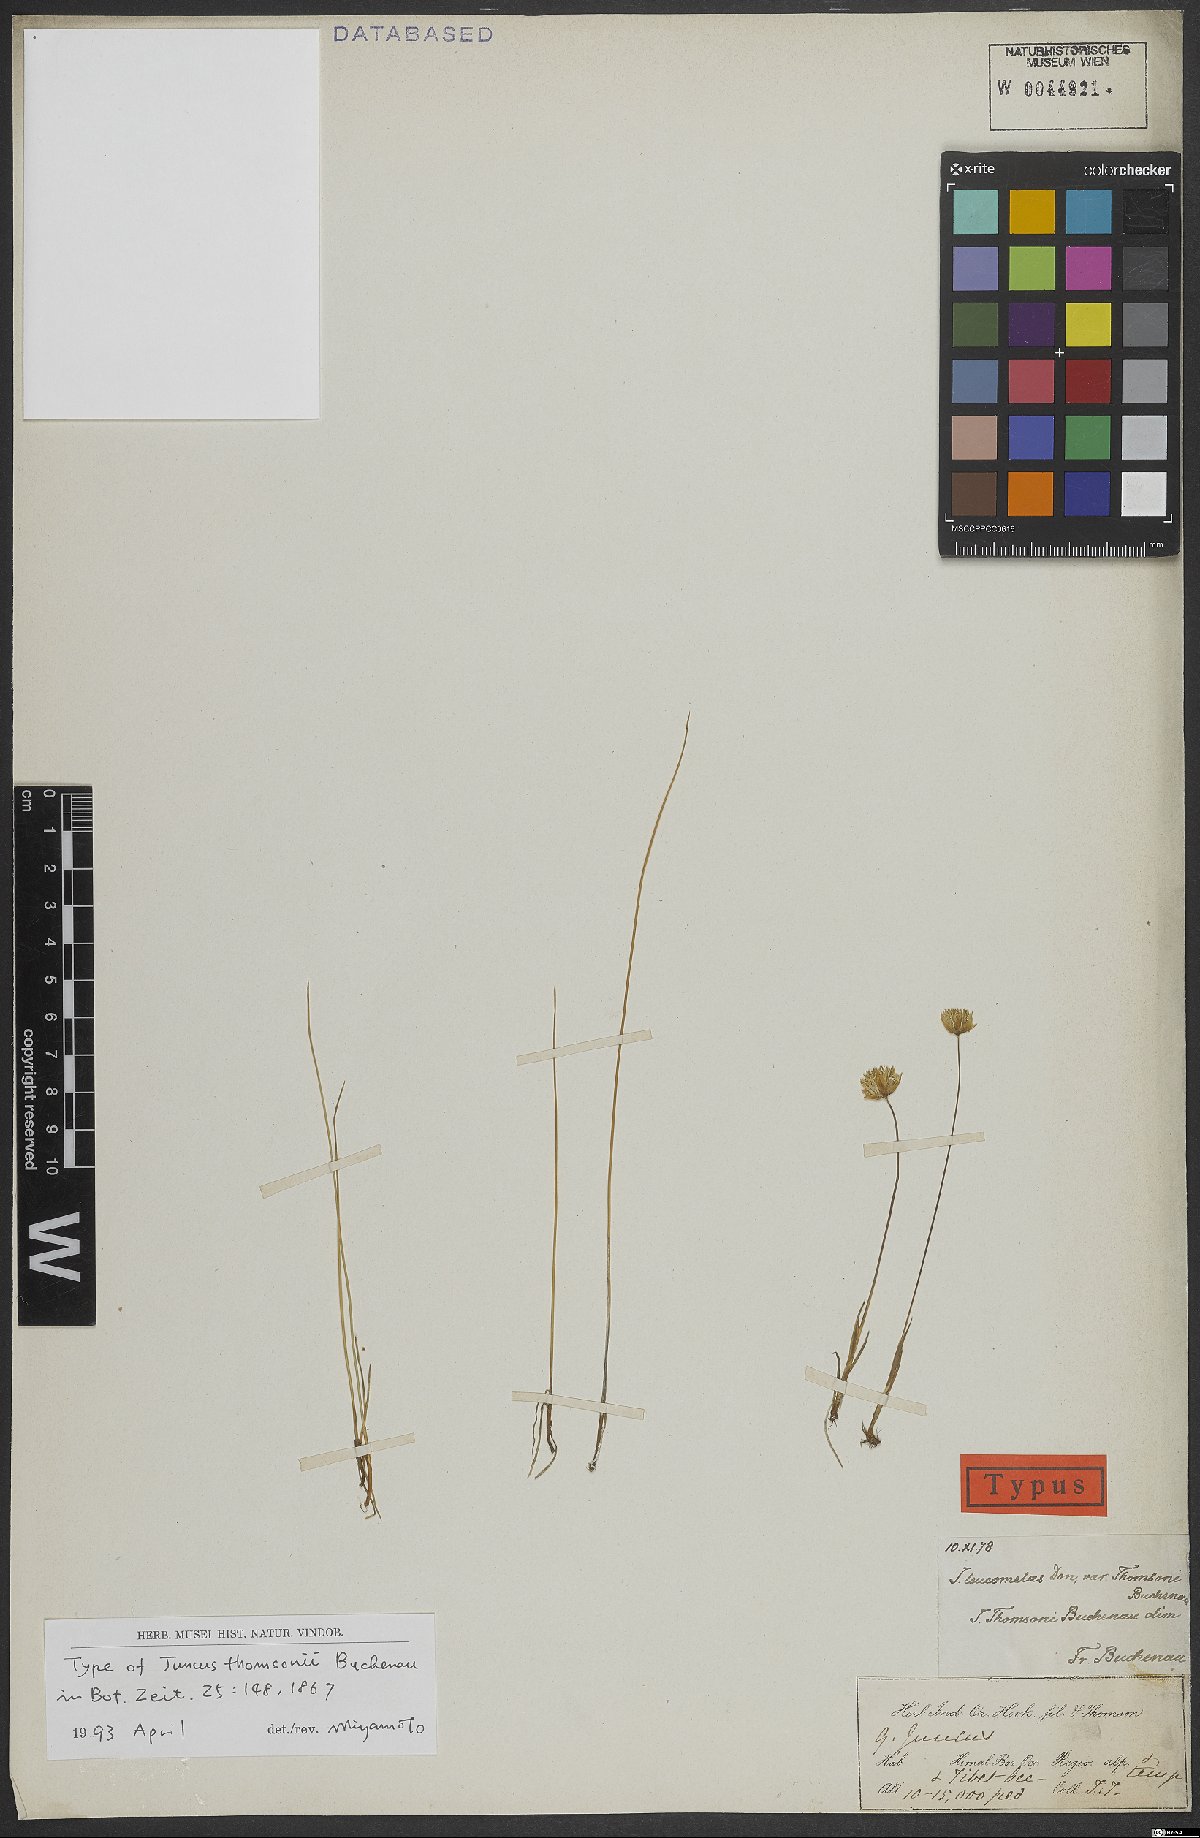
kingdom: Plantae
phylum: Tracheophyta
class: Liliopsida
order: Poales
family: Juncaceae
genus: Juncus
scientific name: Juncus thomsonii
